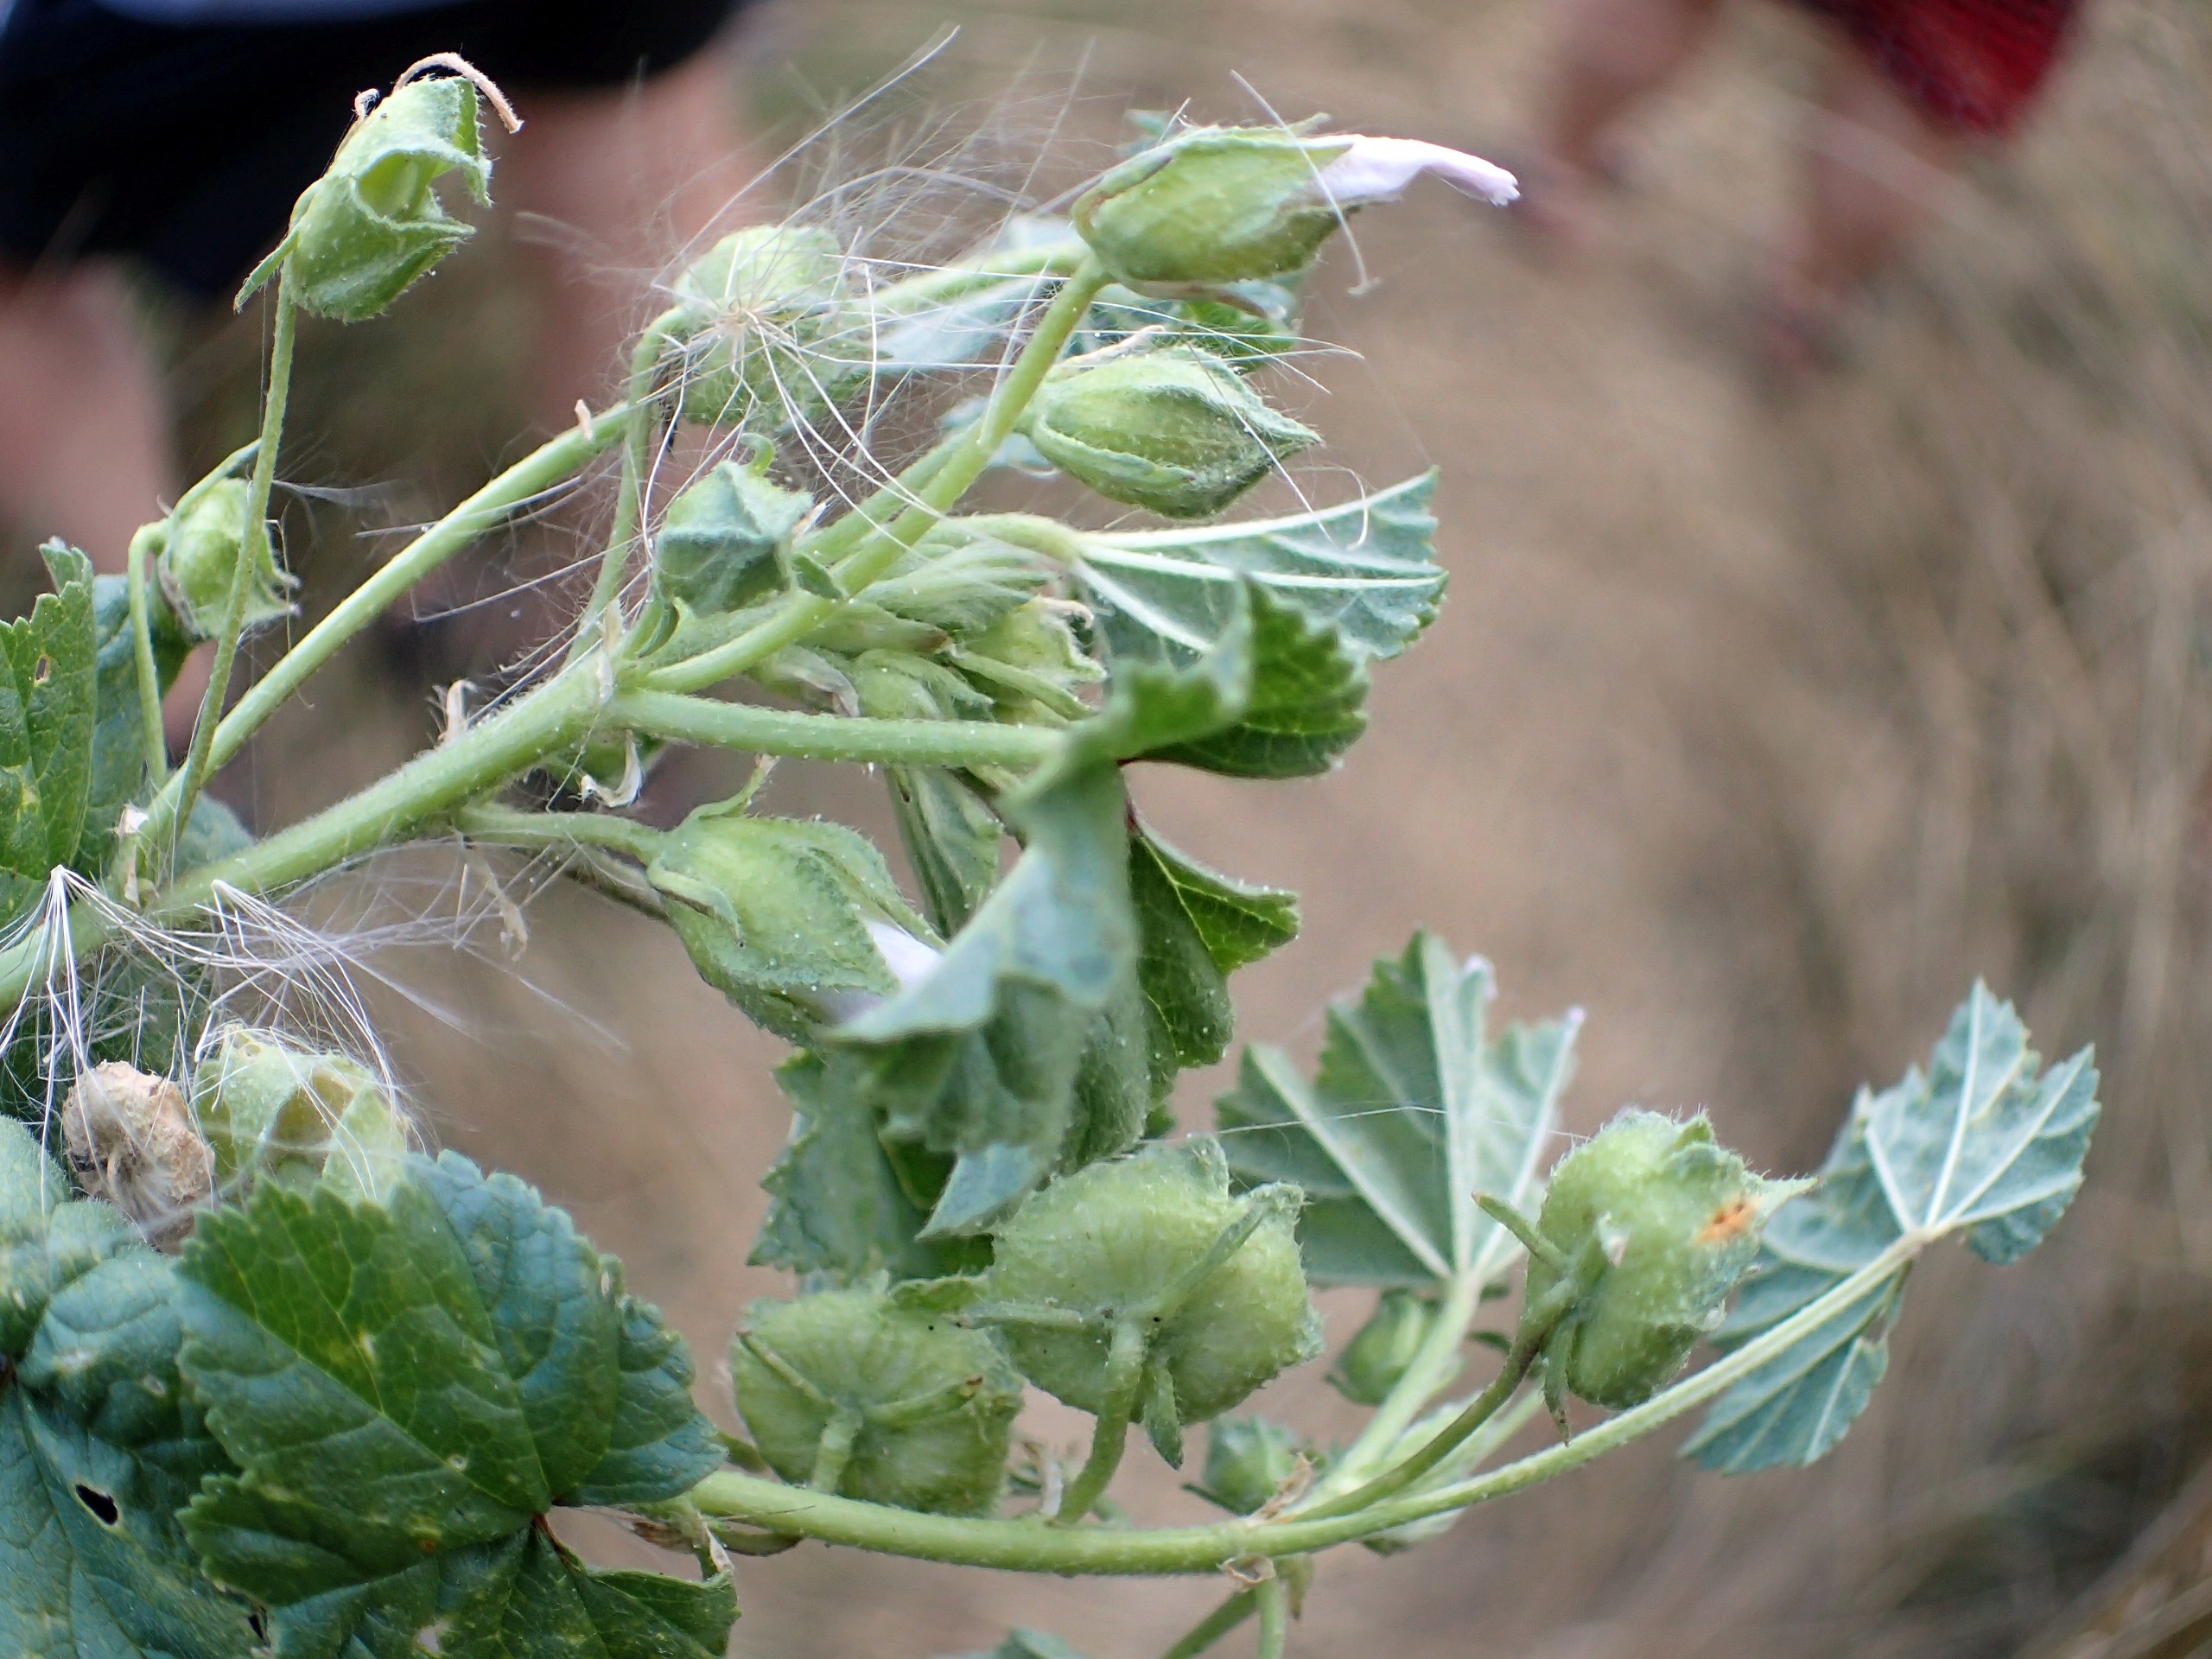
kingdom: Plantae
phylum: Tracheophyta
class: Magnoliopsida
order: Malvales
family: Malvaceae
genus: Malva
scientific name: Malva neglecta
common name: Rundbladet katost
